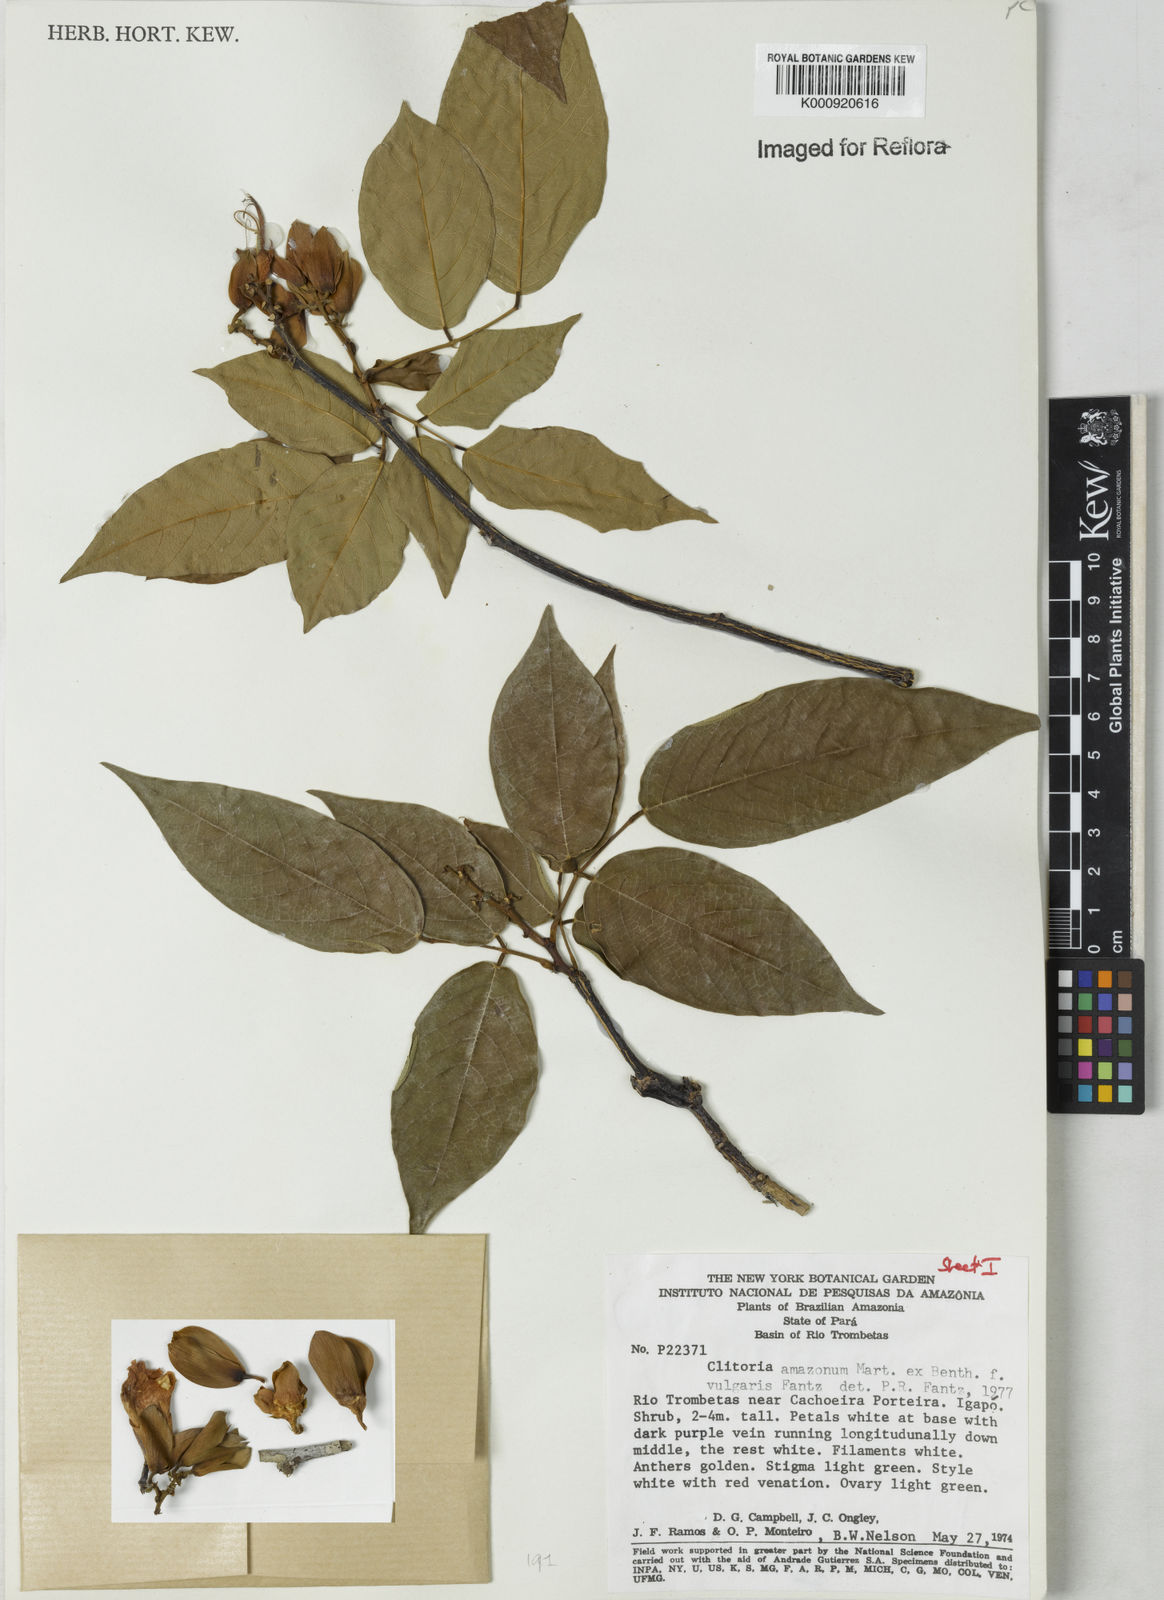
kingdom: Plantae
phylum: Tracheophyta
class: Magnoliopsida
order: Fabales
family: Fabaceae
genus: Clitoria
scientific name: Clitoria amazonum
